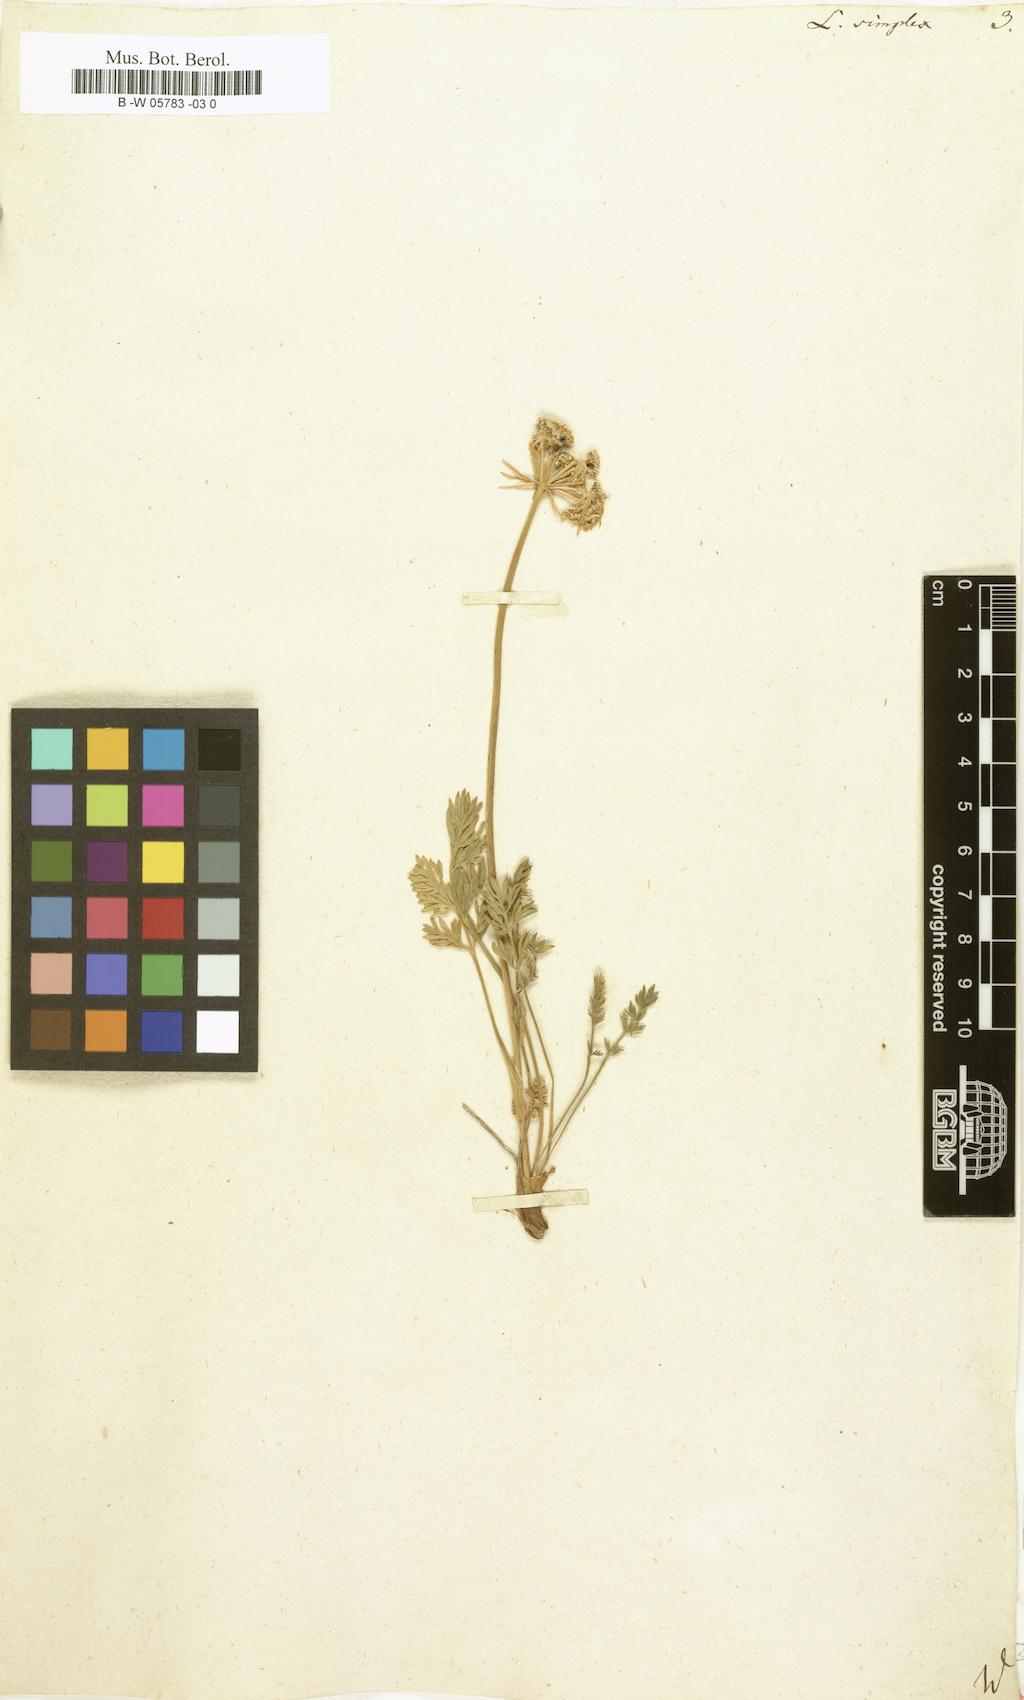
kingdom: Plantae
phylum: Tracheophyta
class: Magnoliopsida
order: Apiales
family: Apiaceae
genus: Pachypleurum
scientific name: Pachypleurum mutellinoides
